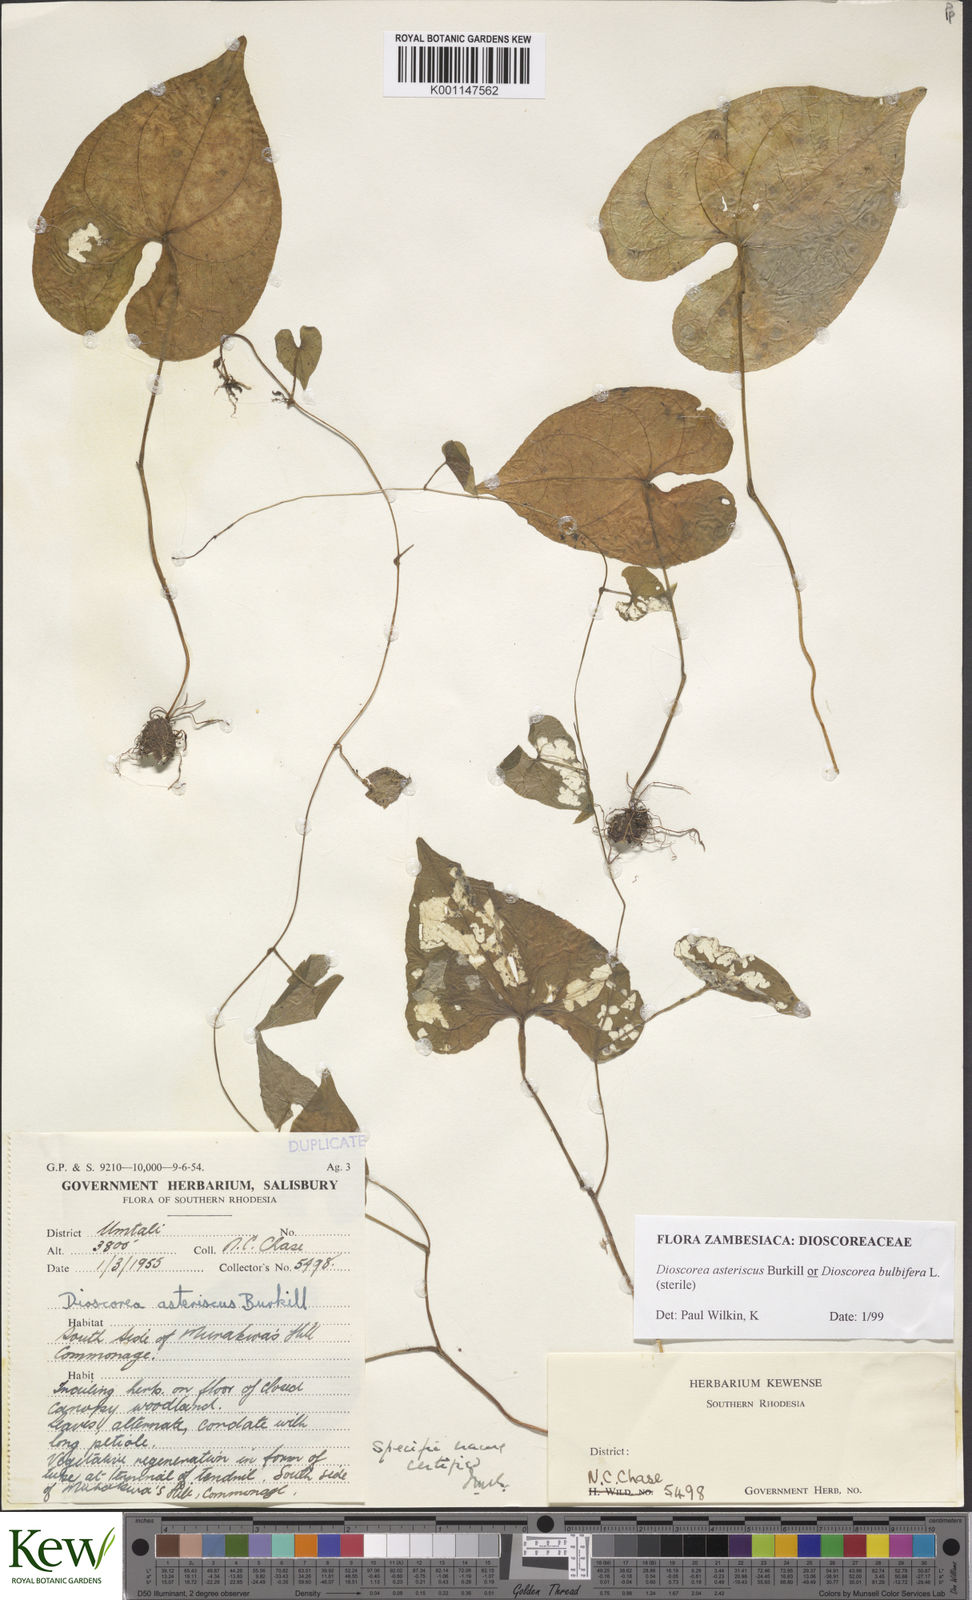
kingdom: Plantae
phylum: Tracheophyta
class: Liliopsida
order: Dioscoreales
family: Dioscoreaceae
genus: Dioscorea
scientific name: Dioscorea asteriscus
